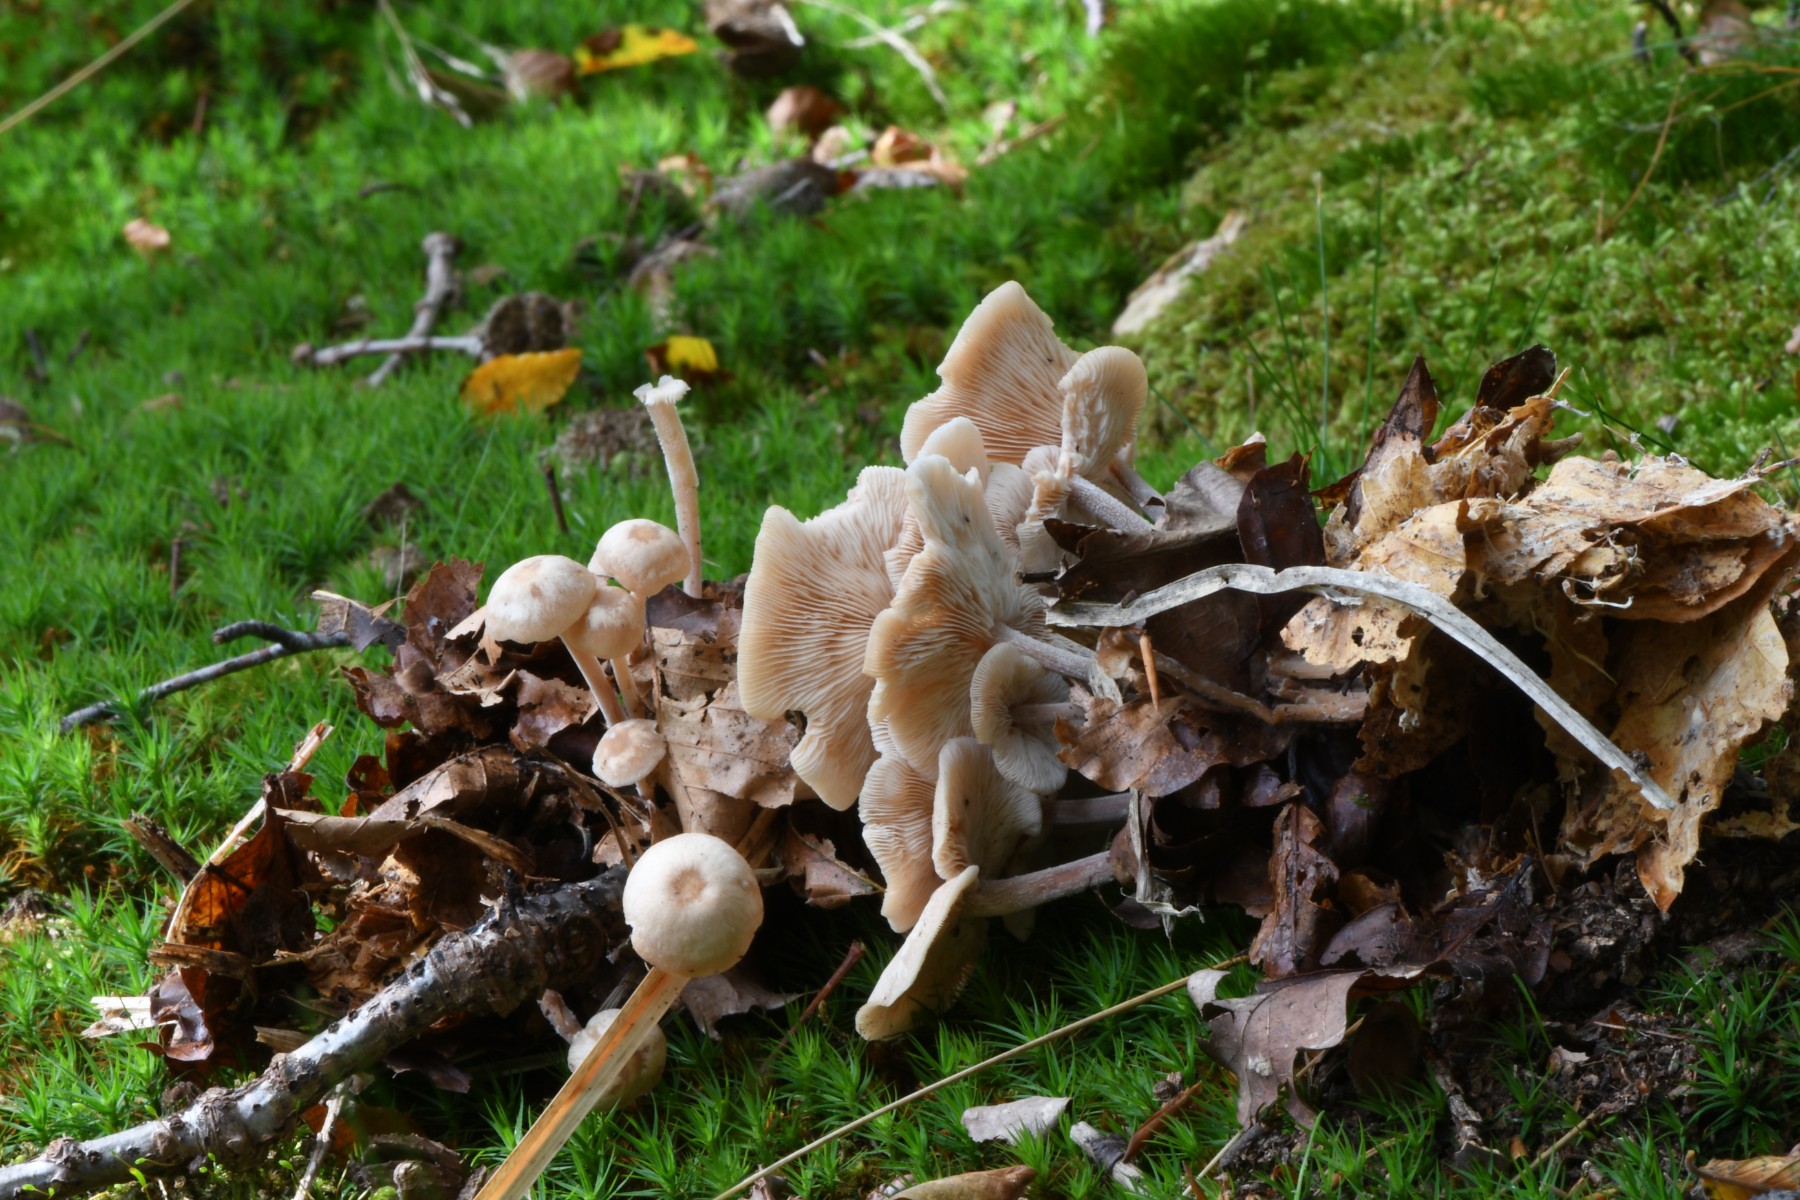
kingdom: Fungi
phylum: Basidiomycota
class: Agaricomycetes
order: Agaricales
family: Omphalotaceae
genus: Collybiopsis
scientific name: Collybiopsis confluens
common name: knippe-fladhat
